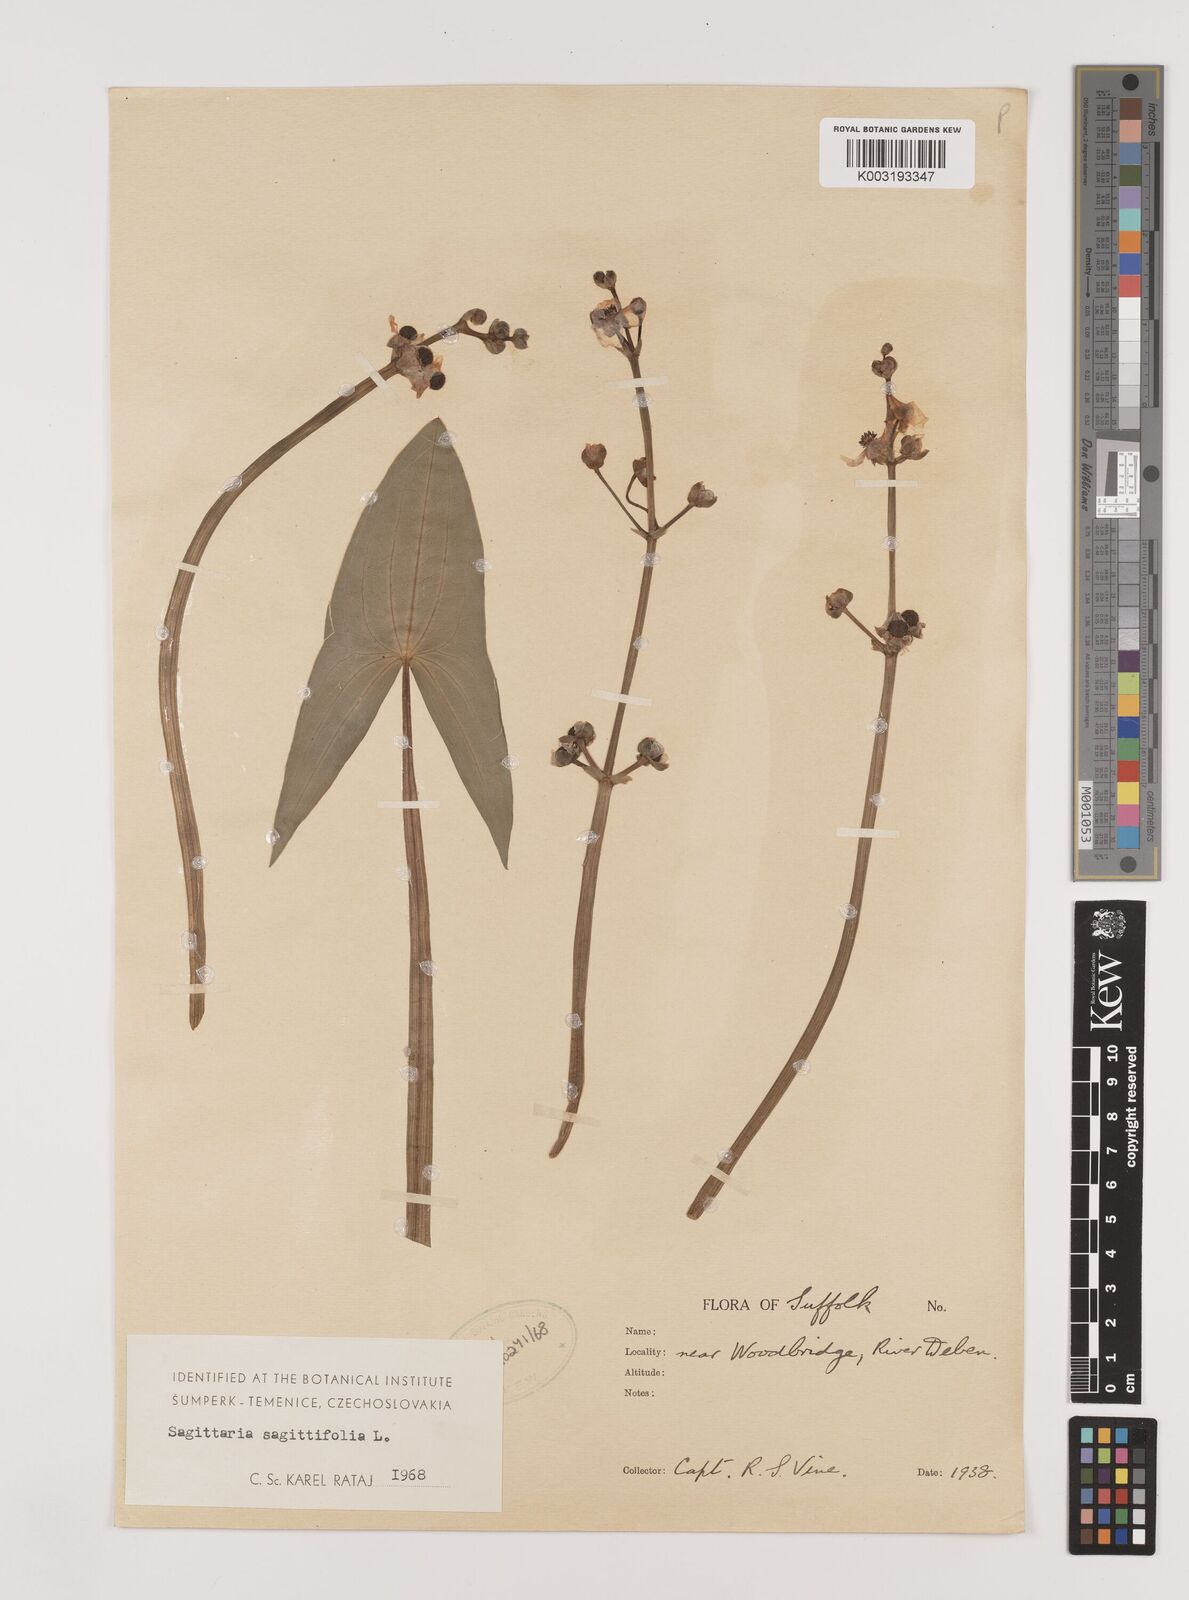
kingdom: Plantae
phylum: Tracheophyta
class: Liliopsida
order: Alismatales
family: Alismataceae
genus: Sagittaria
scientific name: Sagittaria sagittifolia
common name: Arrowhead
